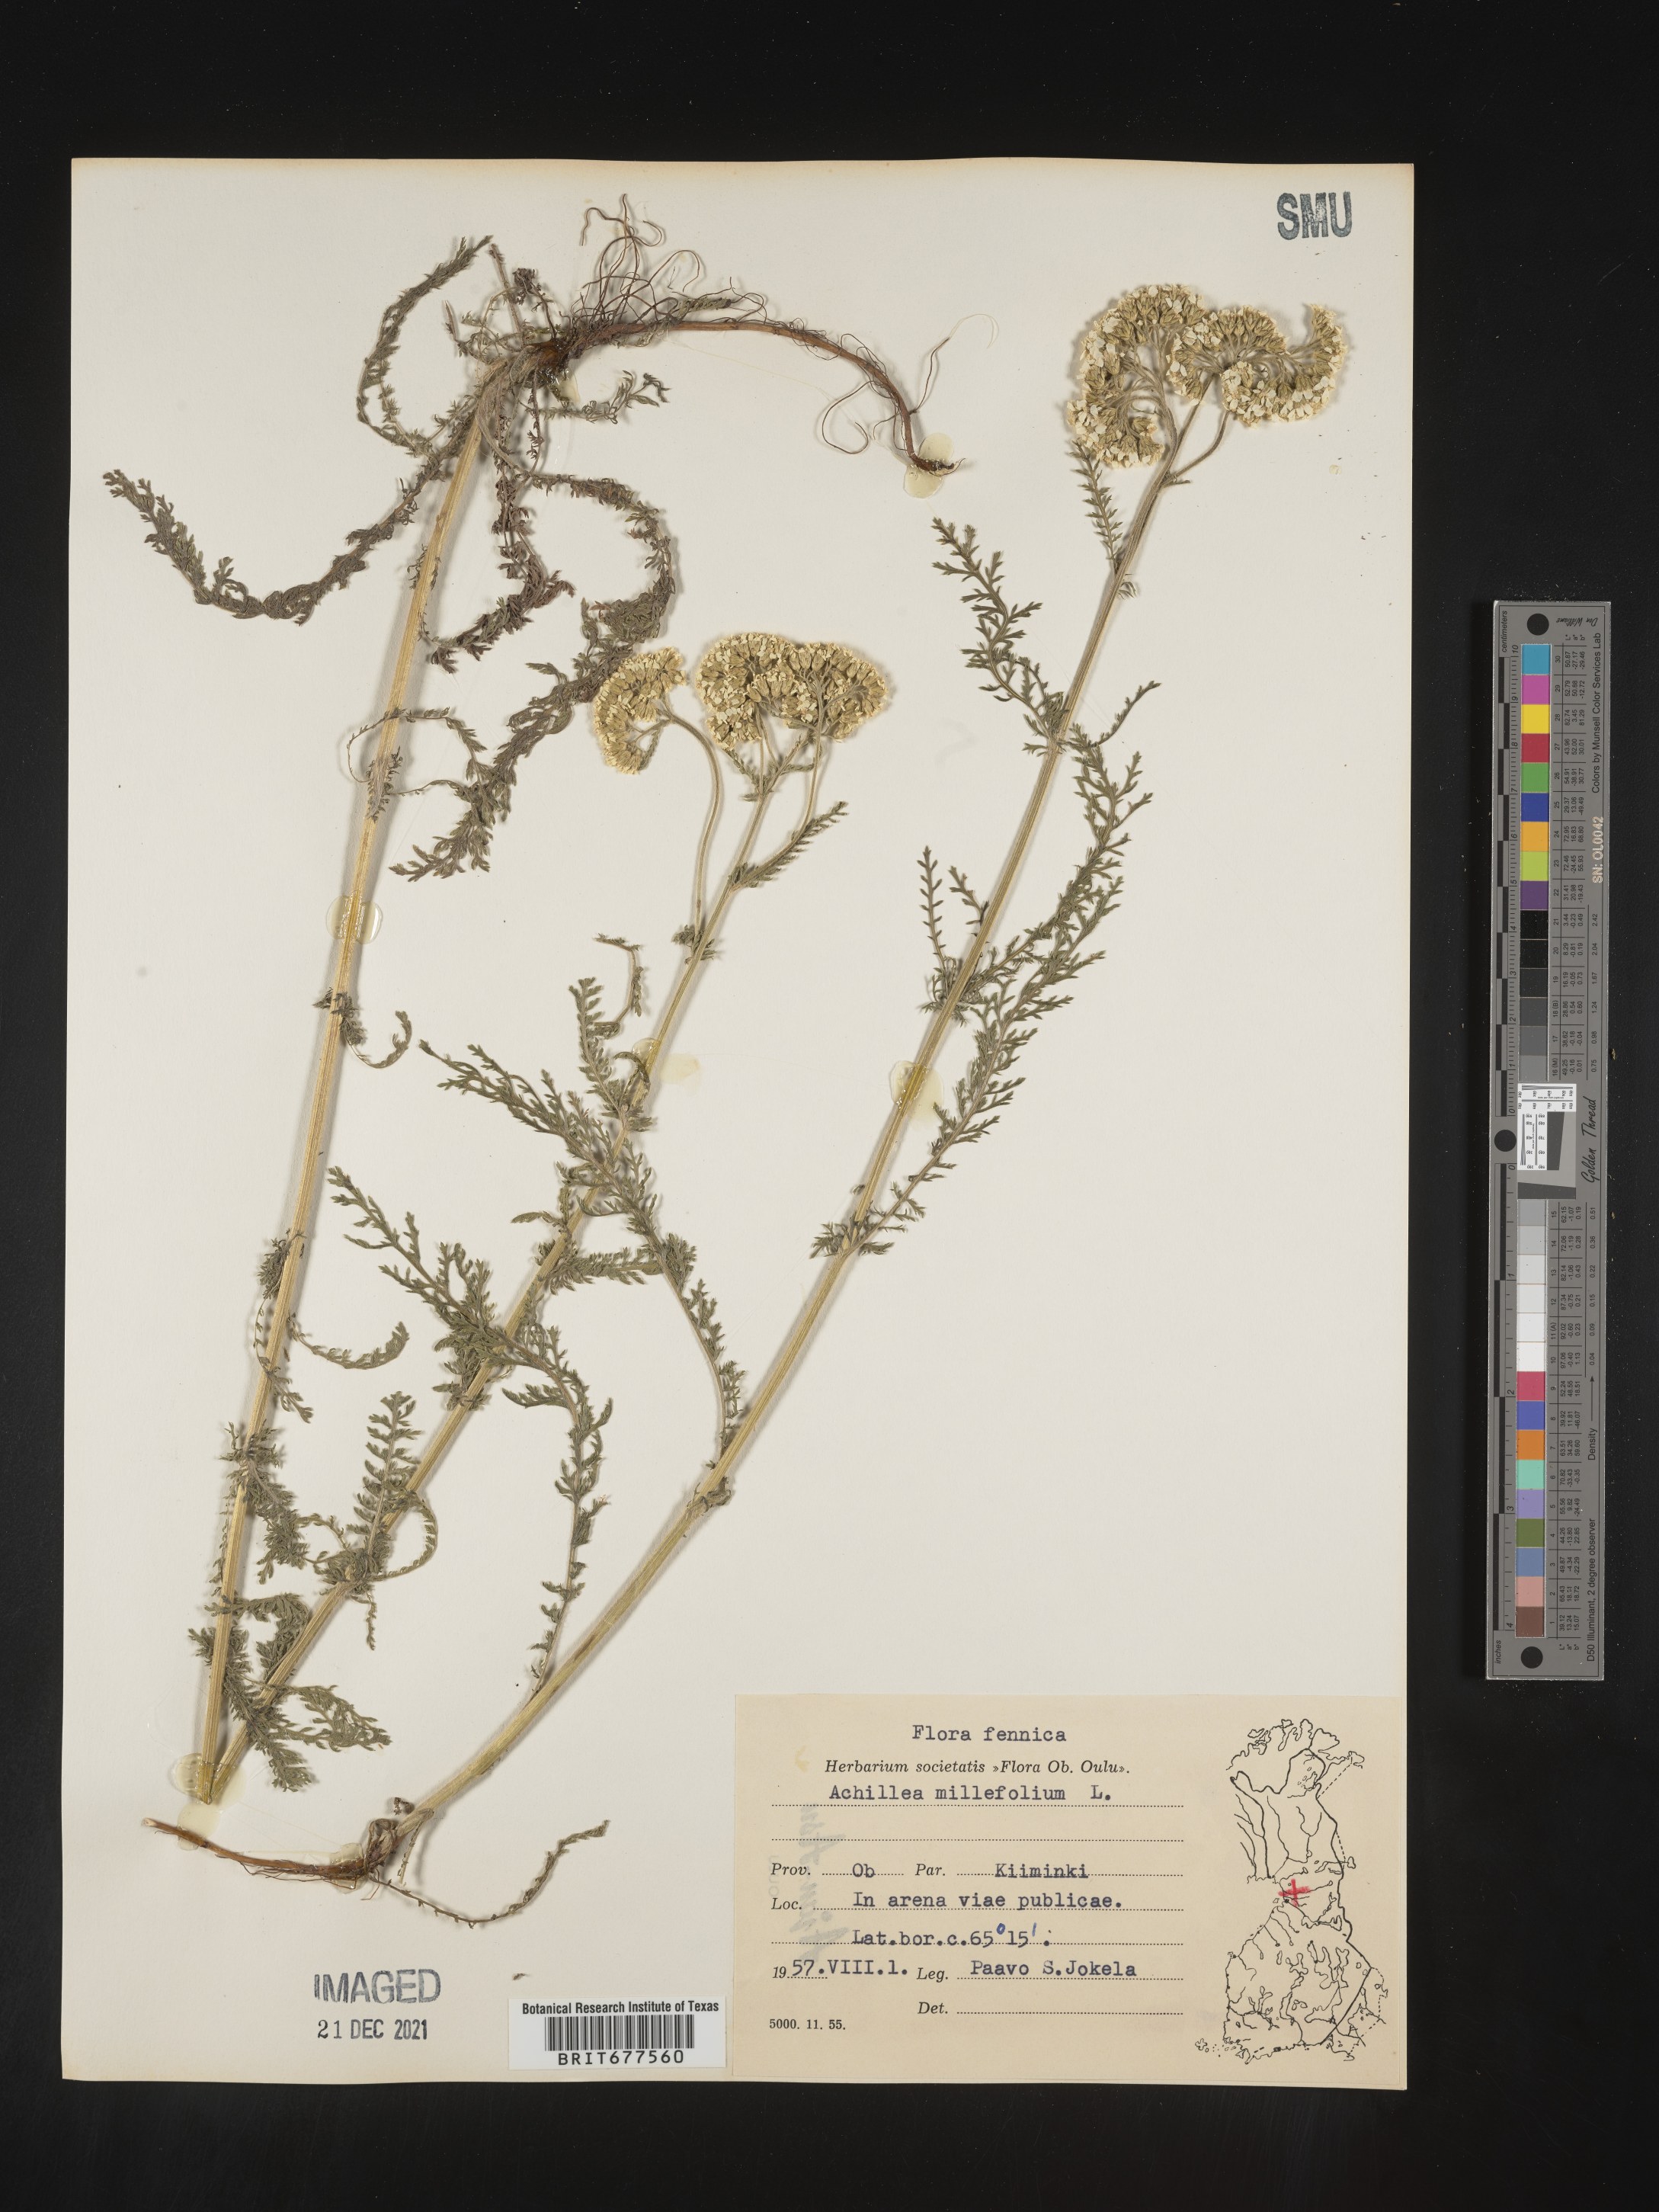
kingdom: Plantae
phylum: Tracheophyta
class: Magnoliopsida
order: Asterales
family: Asteraceae
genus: Achillea
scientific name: Achillea millefolium
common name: Yarrow
